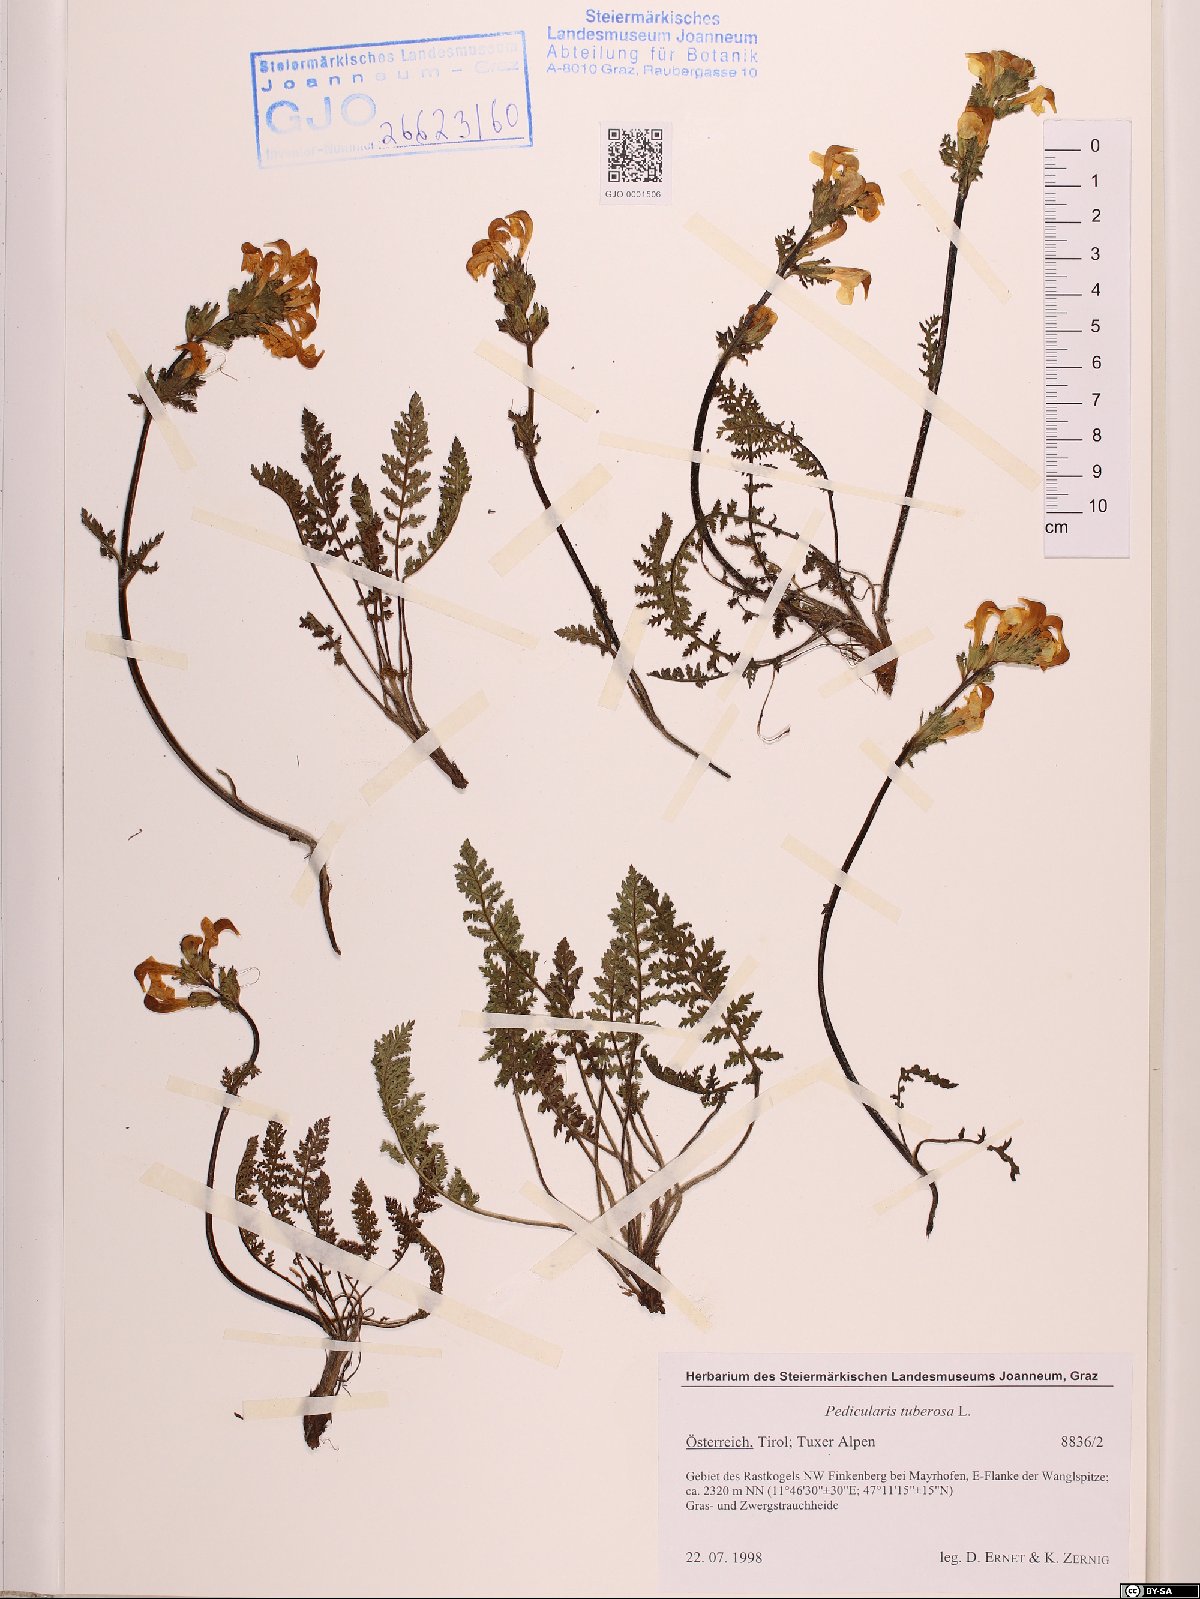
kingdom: Plantae
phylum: Tracheophyta
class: Magnoliopsida
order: Lamiales
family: Orobanchaceae
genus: Pedicularis
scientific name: Pedicularis tuberosa
